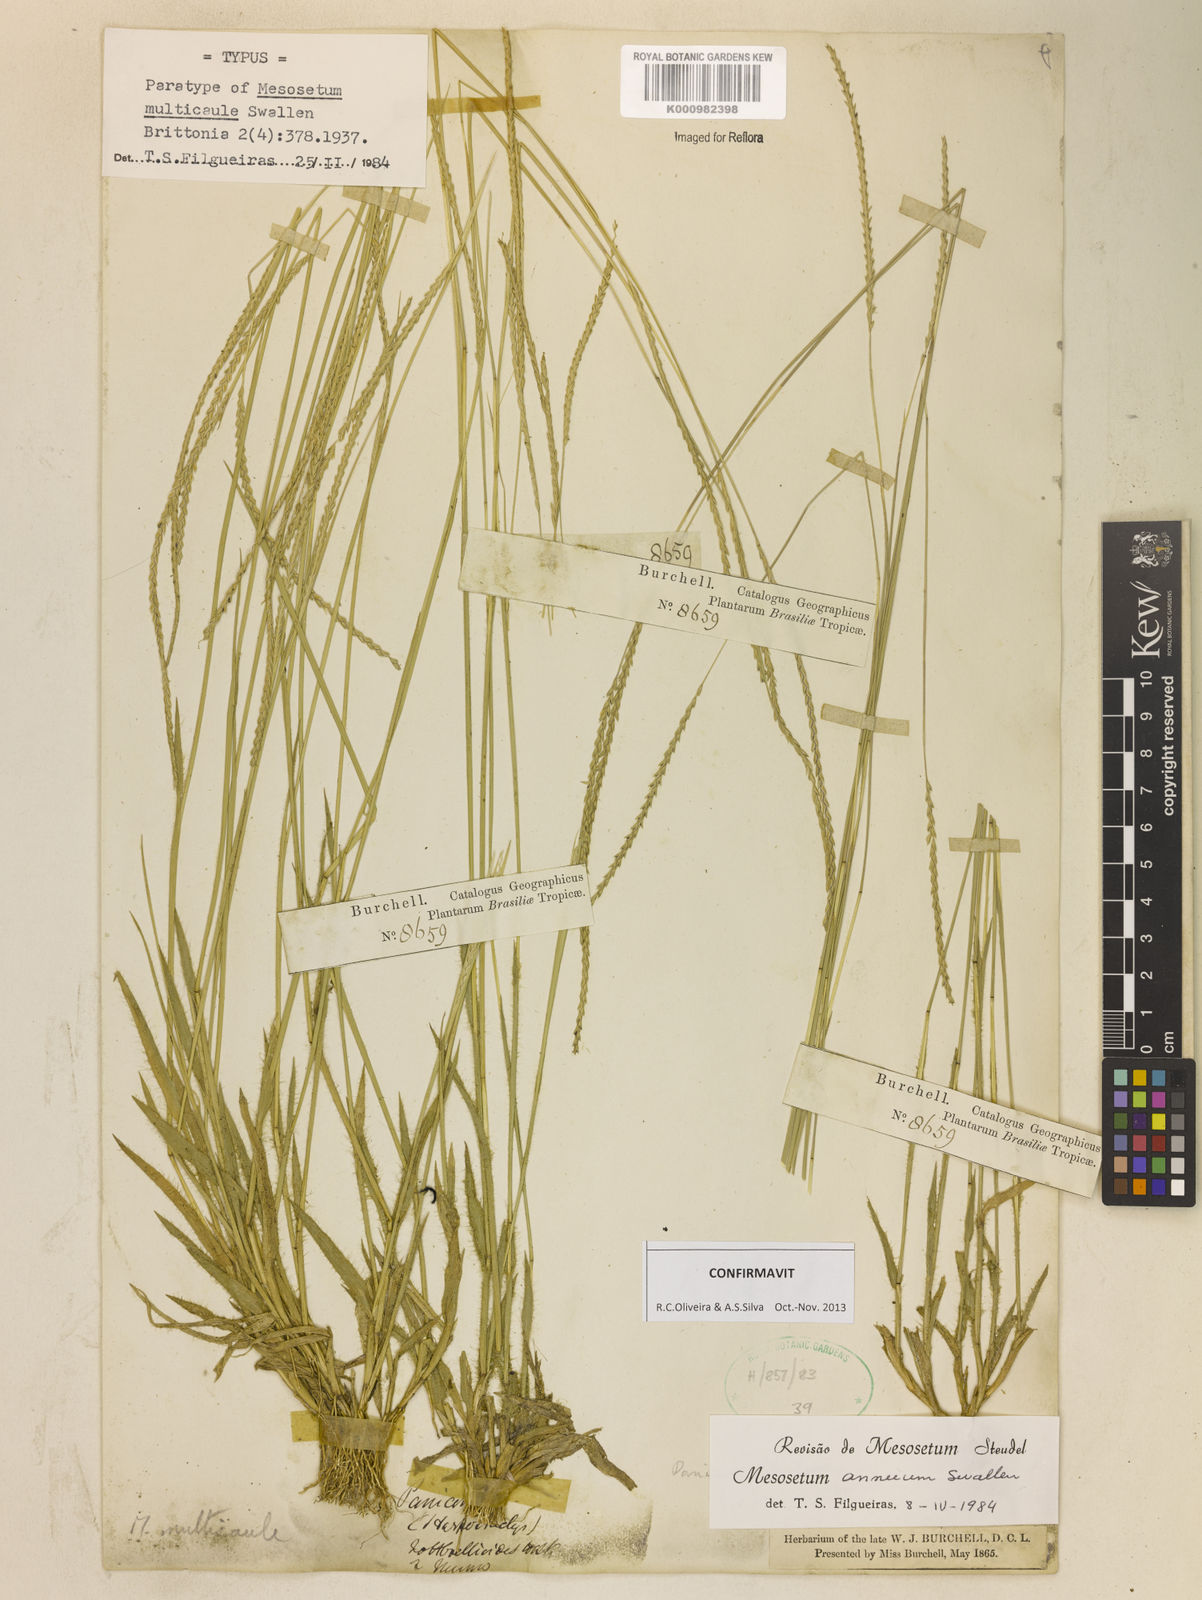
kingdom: Plantae
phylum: Tracheophyta
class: Liliopsida
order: Poales
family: Poaceae
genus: Mesosetum
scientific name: Mesosetum annuum
